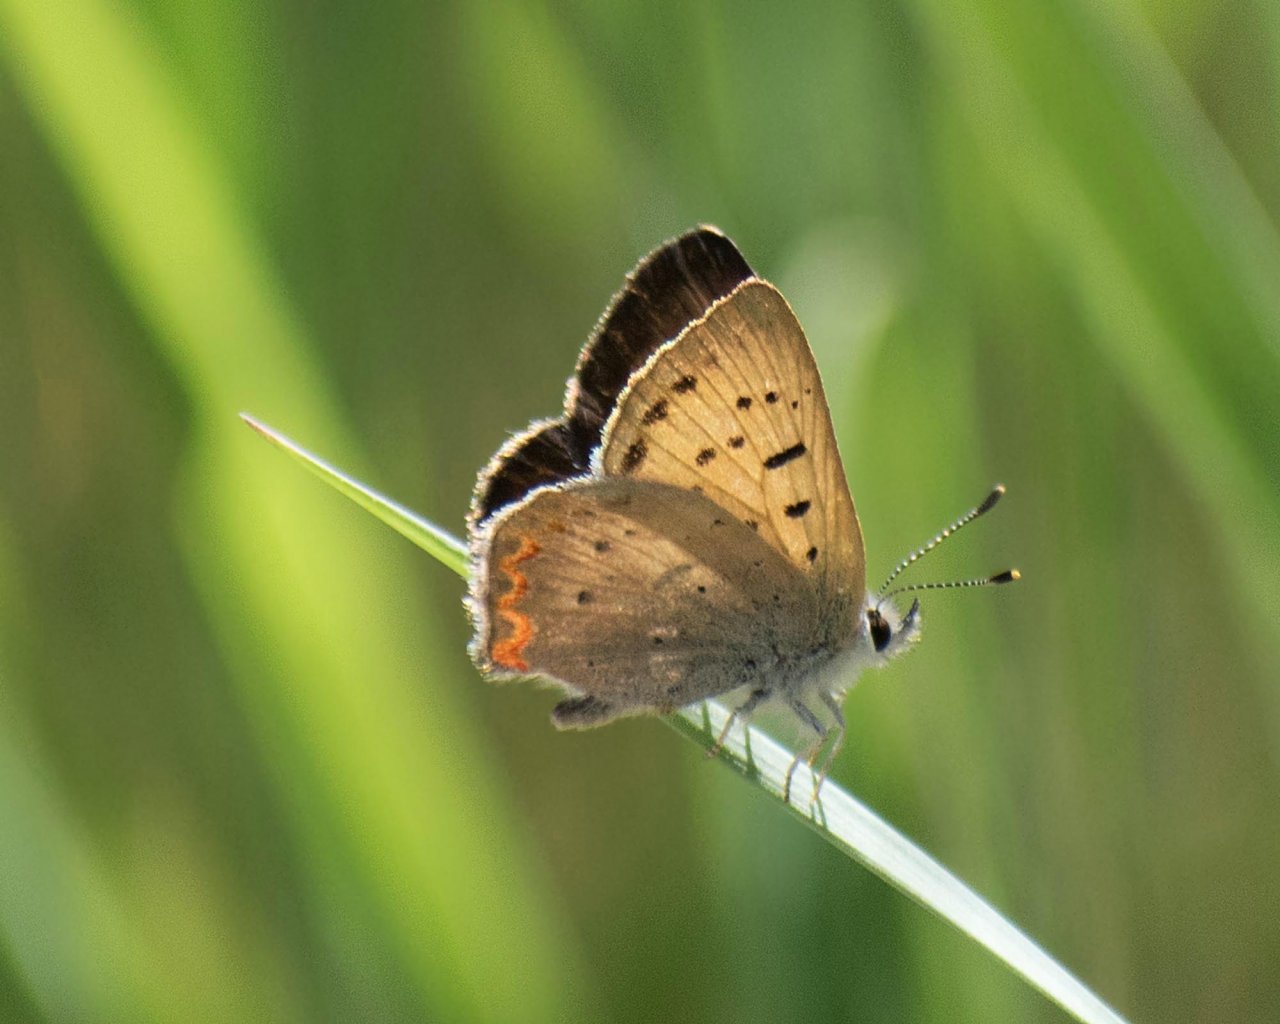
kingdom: Animalia
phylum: Arthropoda
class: Insecta
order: Lepidoptera
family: Sesiidae
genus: Sesia
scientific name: Sesia Lycaena helloides
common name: Purplish Copper
